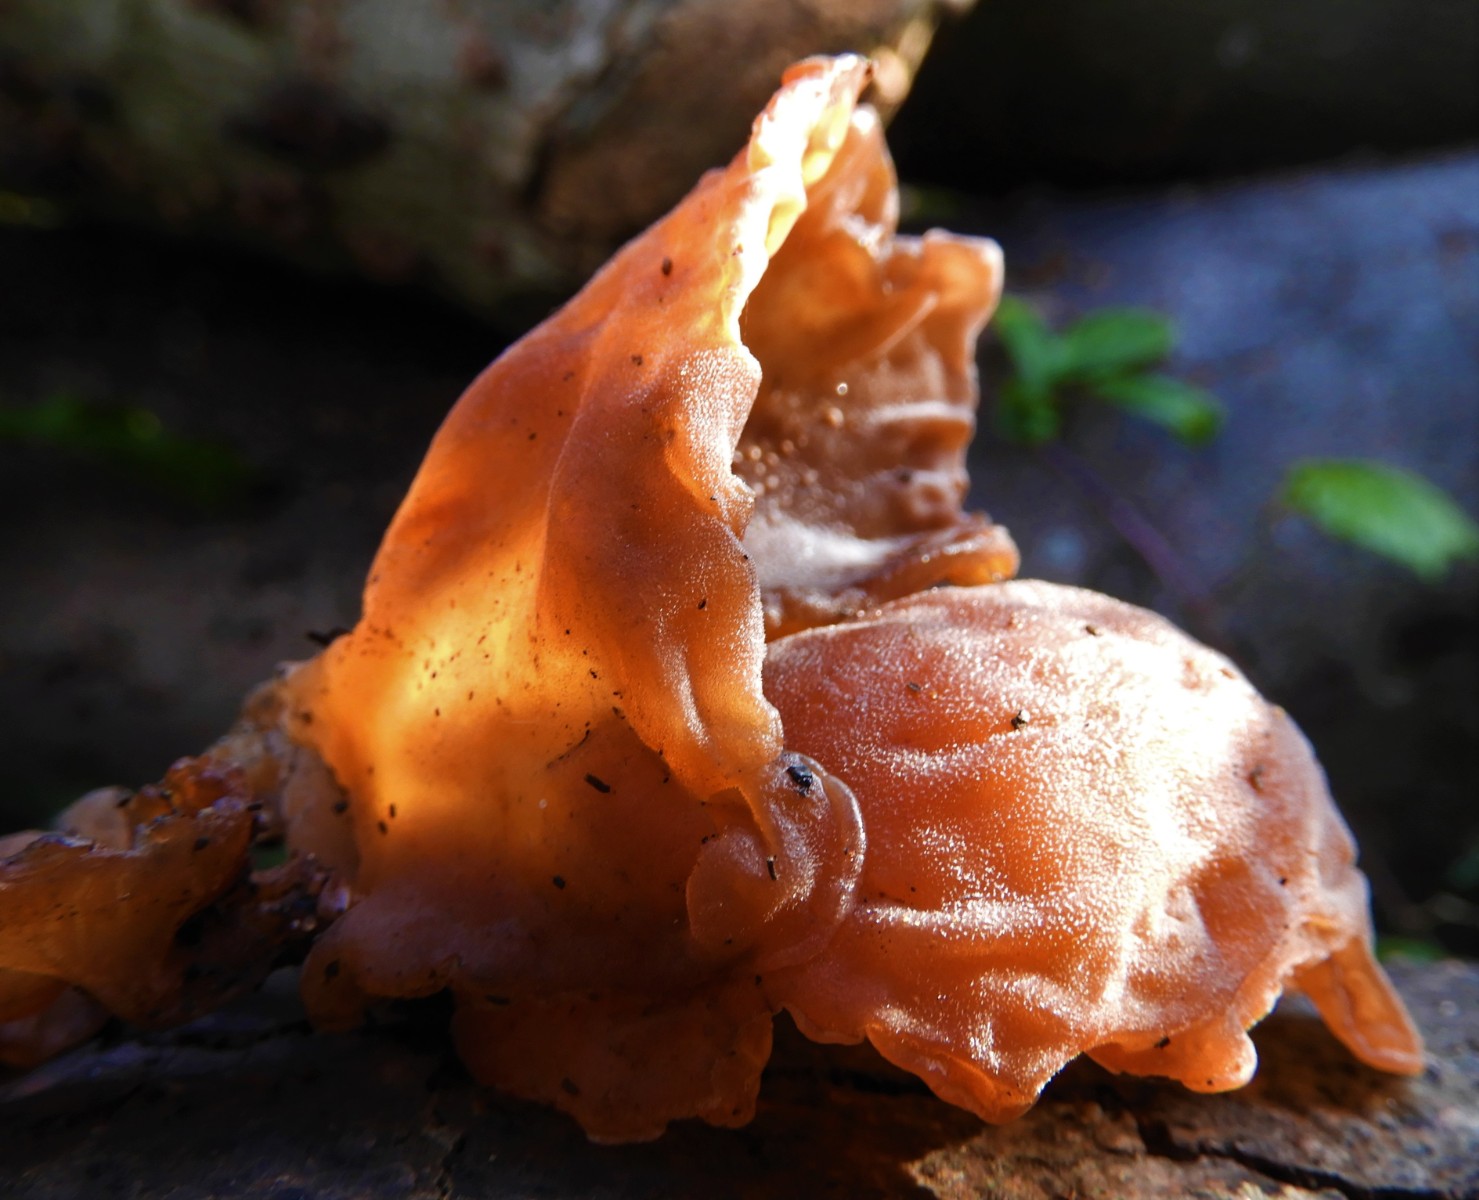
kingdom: Fungi
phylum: Basidiomycota
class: Agaricomycetes
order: Auriculariales
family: Auriculariaceae
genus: Auricularia
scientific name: Auricularia auricula-judae
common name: almindelig judasøre
